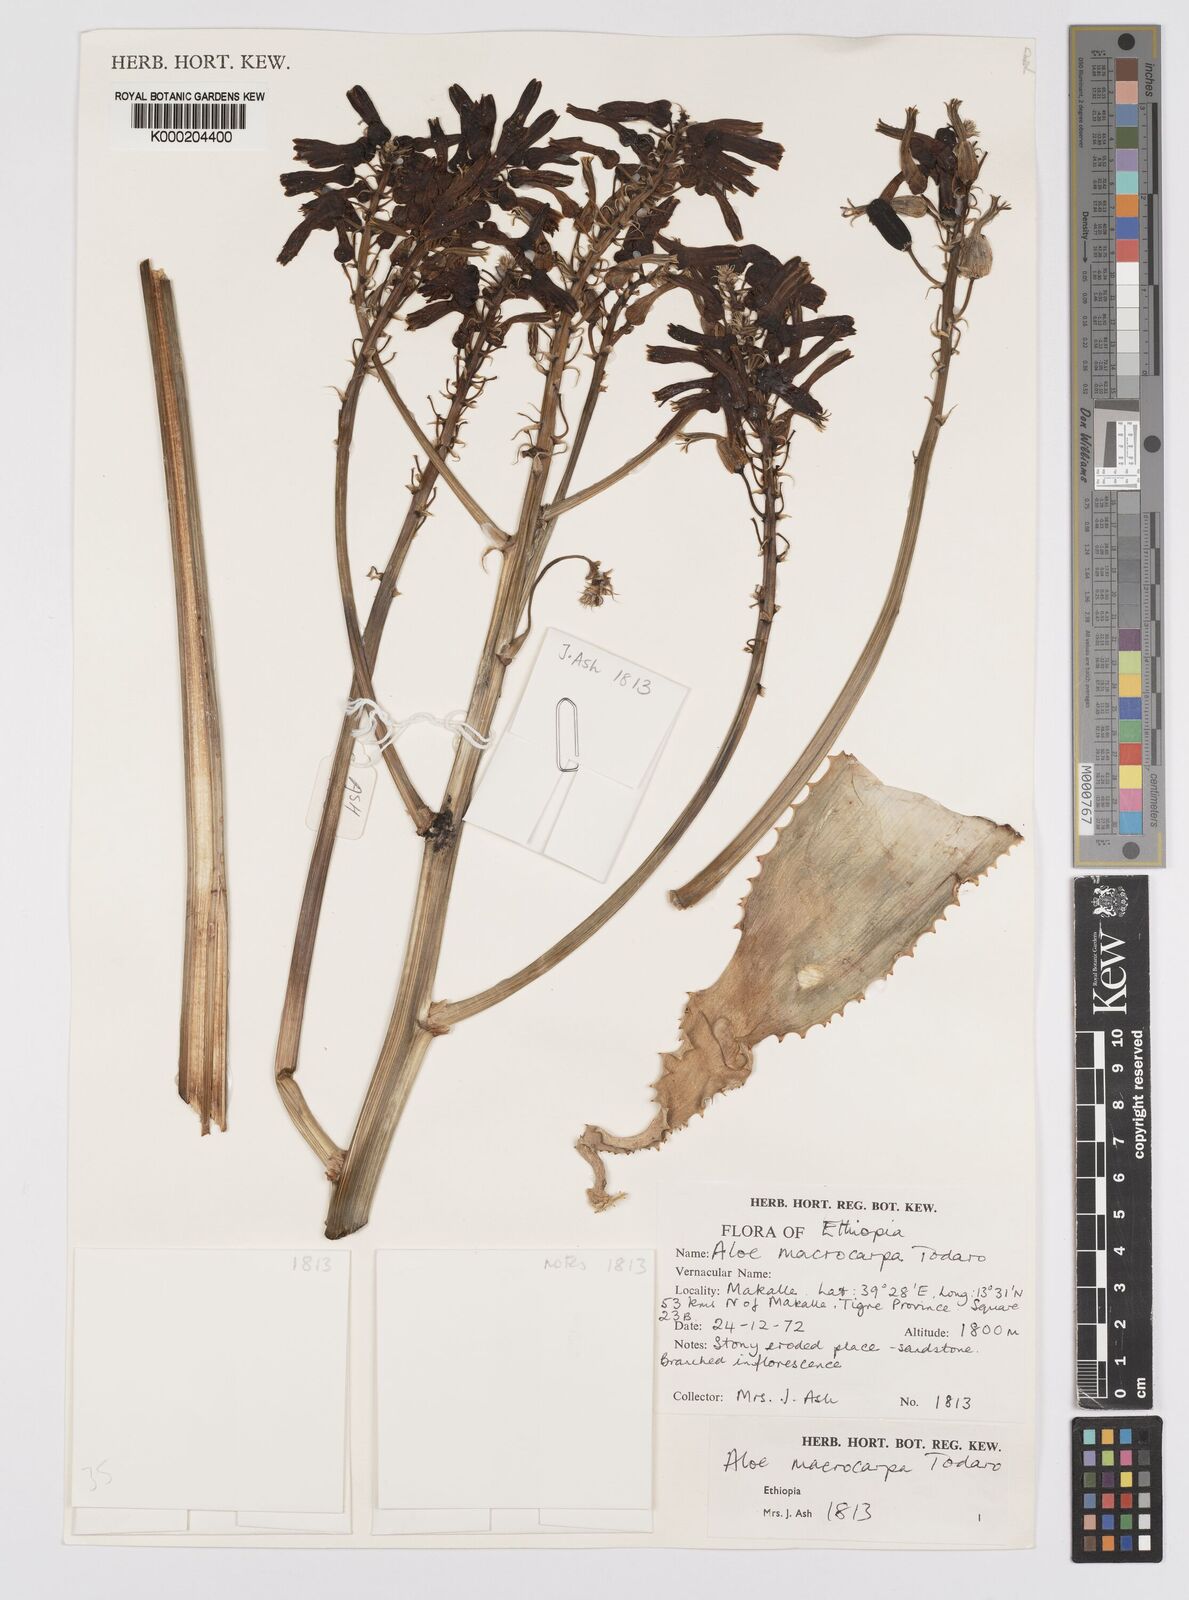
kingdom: Plantae
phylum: Tracheophyta
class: Liliopsida
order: Asparagales
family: Asphodelaceae
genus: Aloe
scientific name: Aloe macrocarpa
